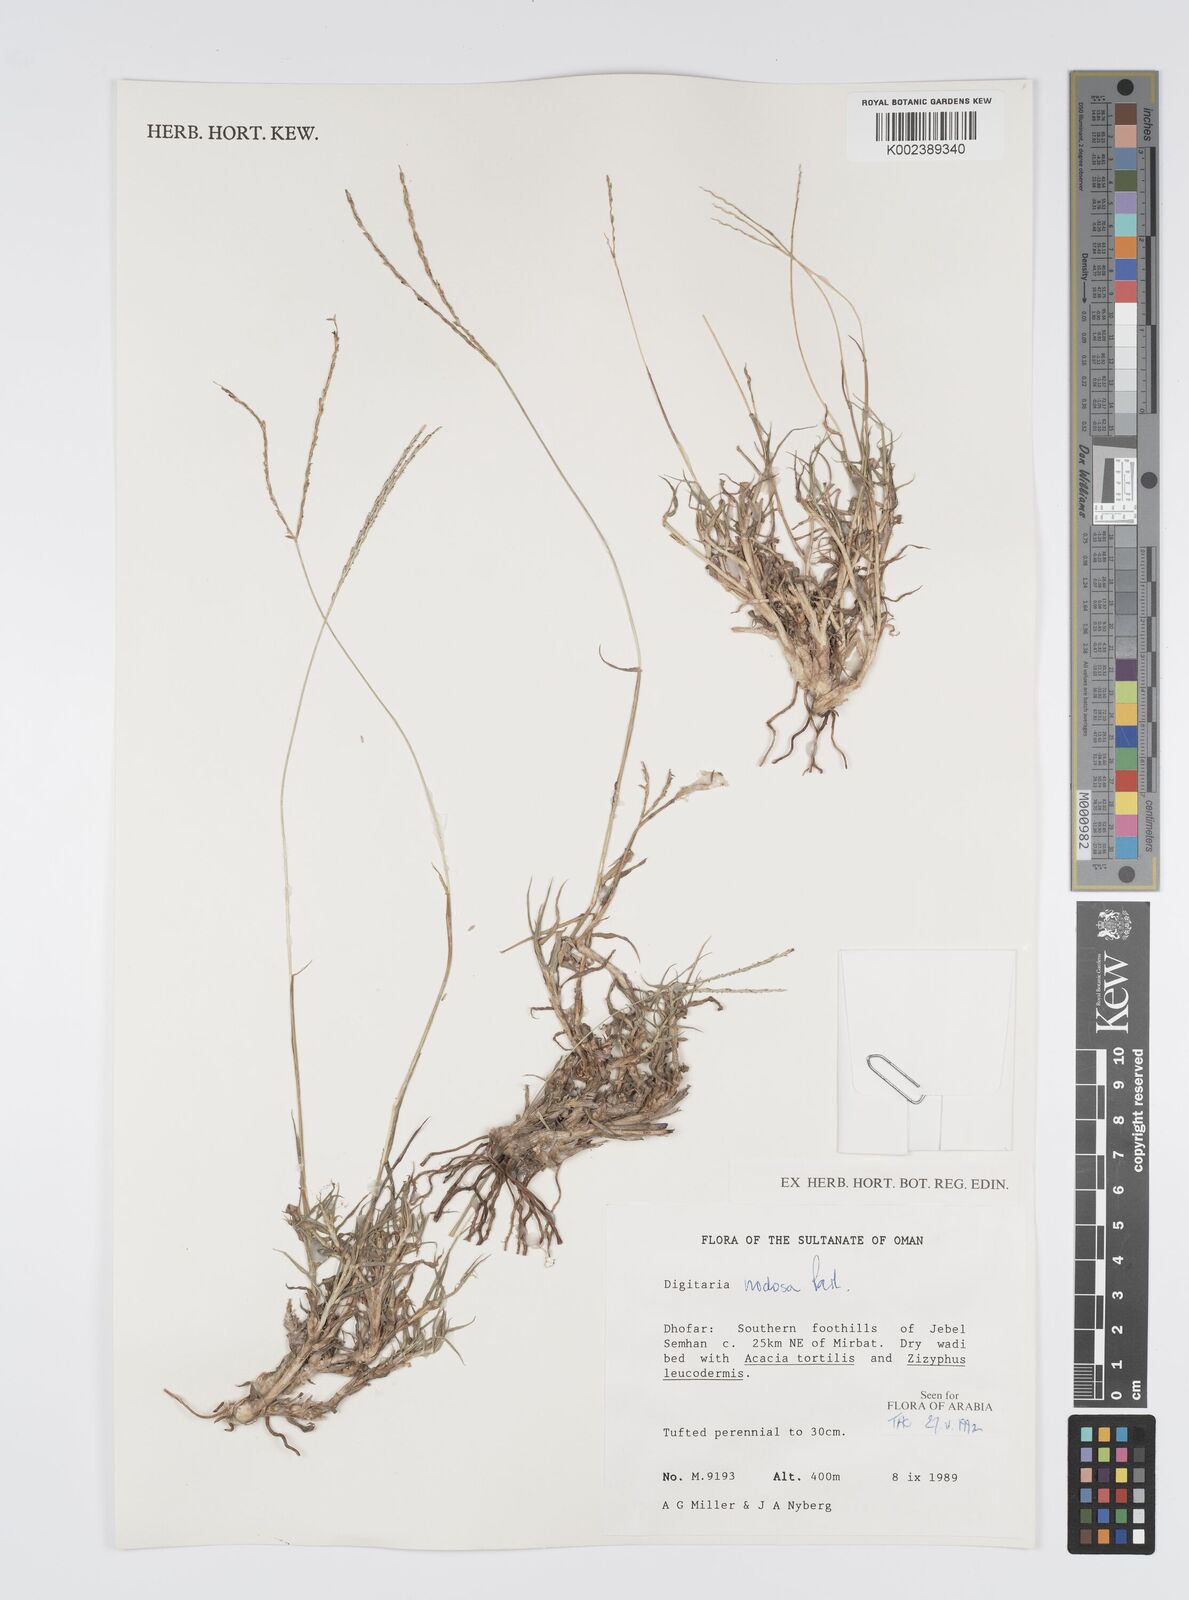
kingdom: Plantae
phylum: Tracheophyta
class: Liliopsida
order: Poales
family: Poaceae
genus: Digitaria
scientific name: Digitaria nodosa
